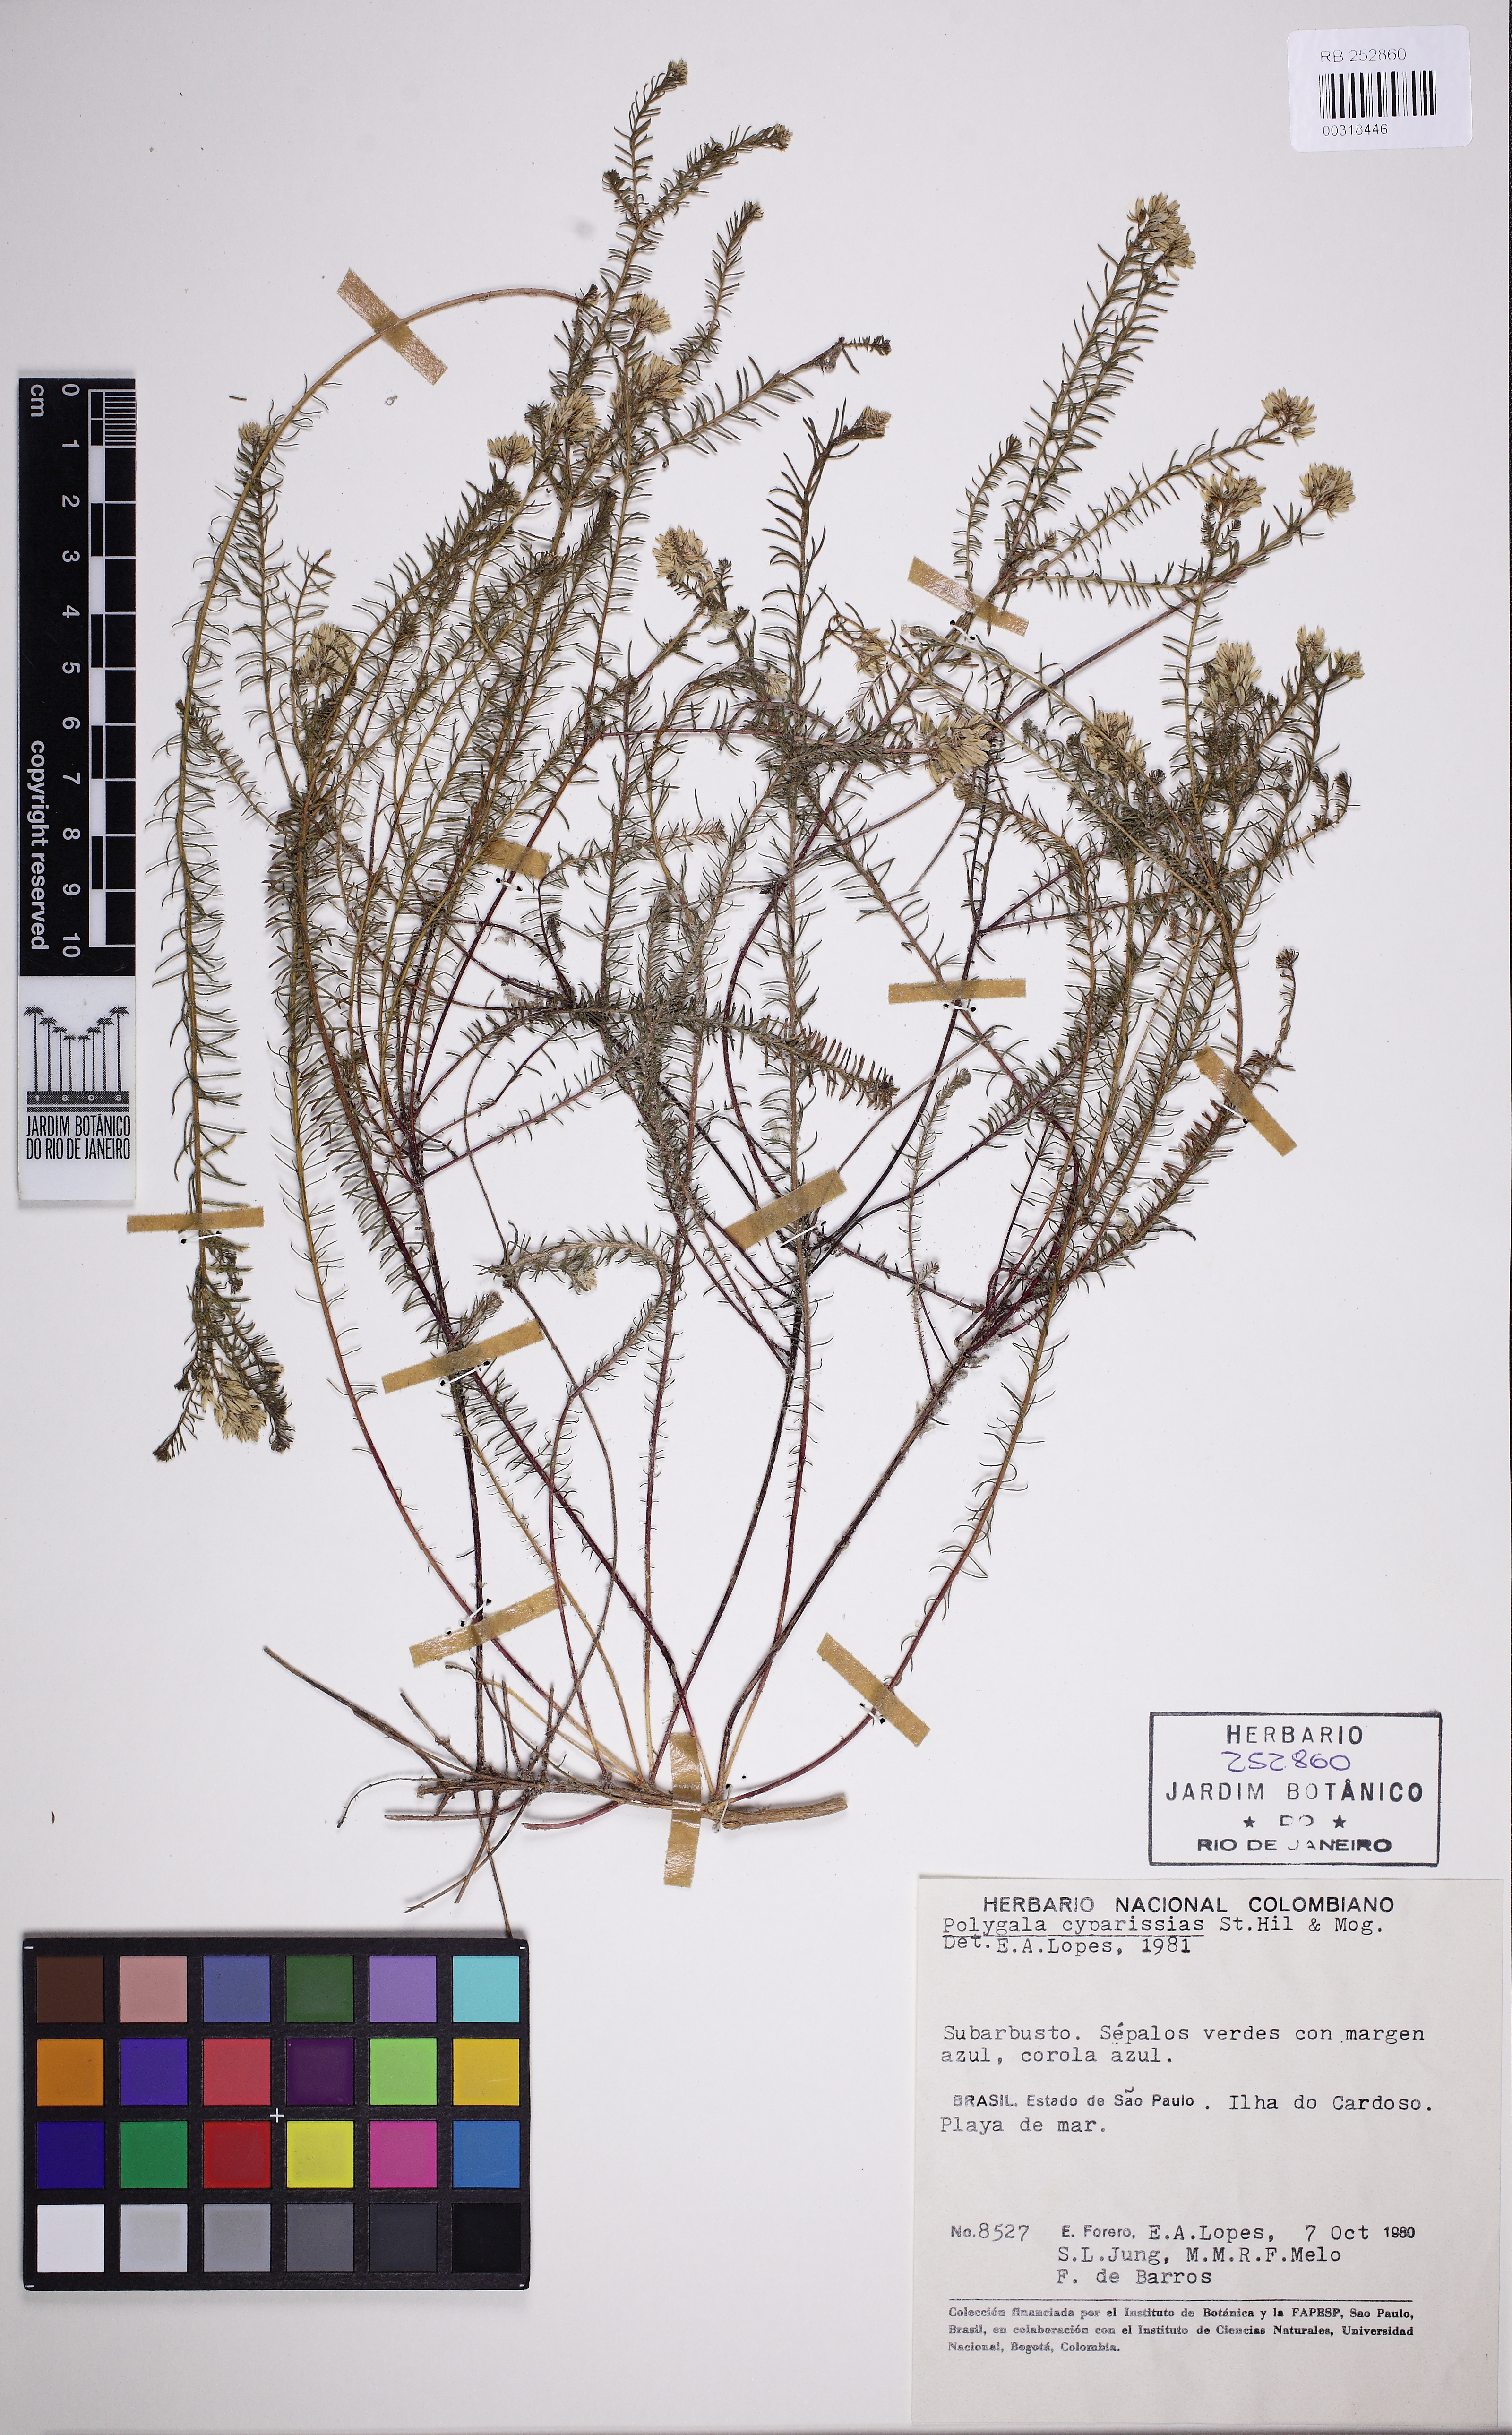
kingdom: Plantae
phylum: Tracheophyta
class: Magnoliopsida
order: Fabales
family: Polygalaceae
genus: Polygala
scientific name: Polygala cyparissias
